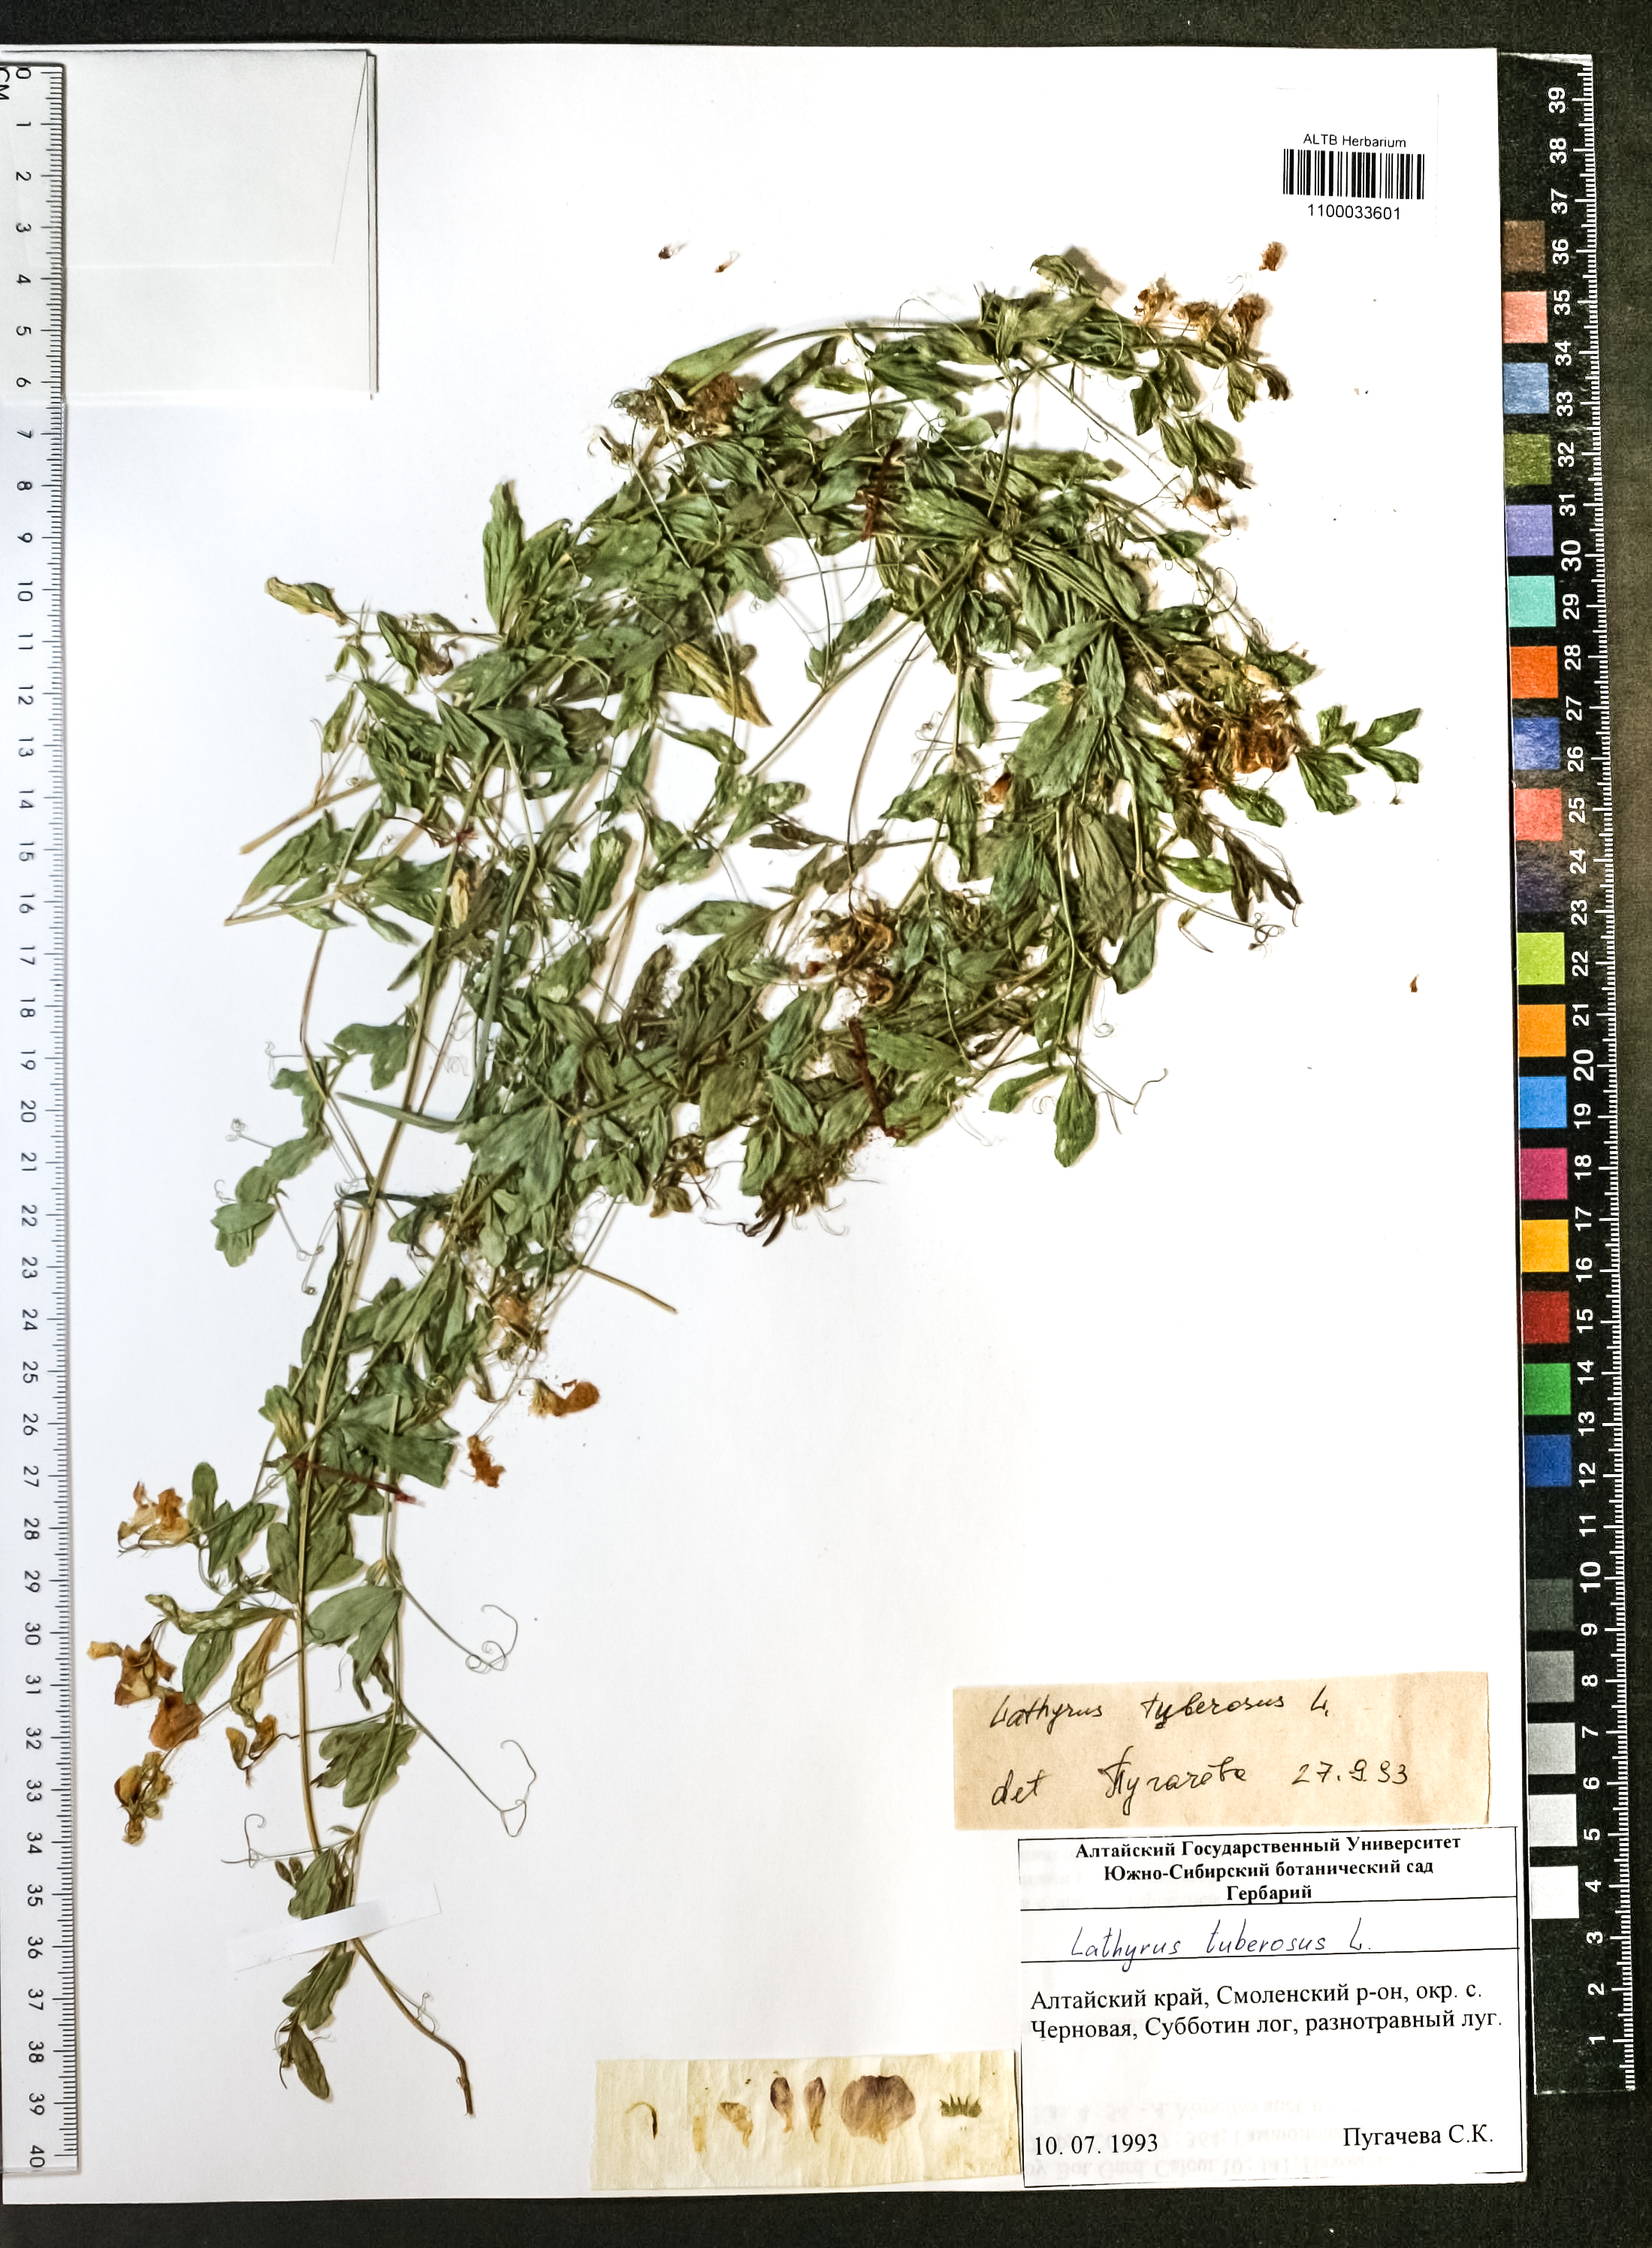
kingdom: Plantae
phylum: Tracheophyta
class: Magnoliopsida
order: Fabales
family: Fabaceae
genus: Lathyrus
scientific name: Lathyrus tuberosus
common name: Tuberous pea
